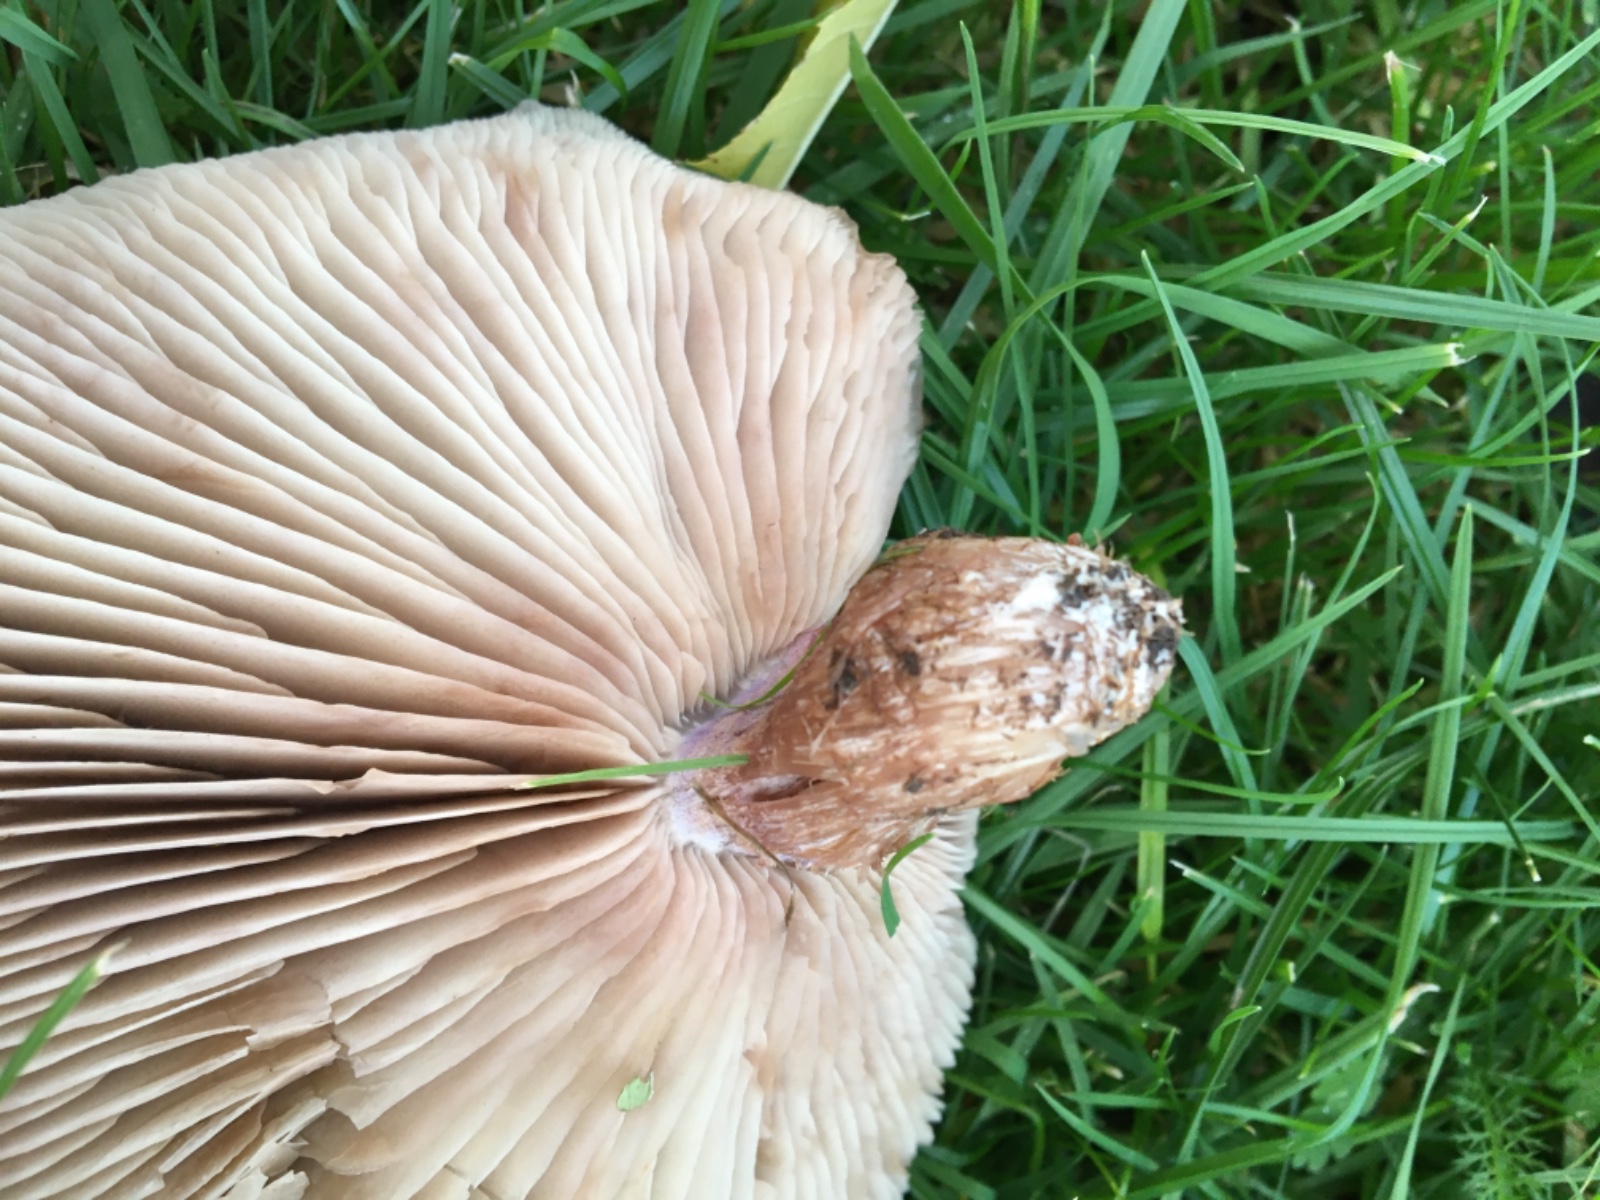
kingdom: Fungi
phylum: Basidiomycota
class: Agaricomycetes
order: Agaricales
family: Tricholomataceae
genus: Lepista
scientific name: Lepista personata
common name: bleg hekseringshat
